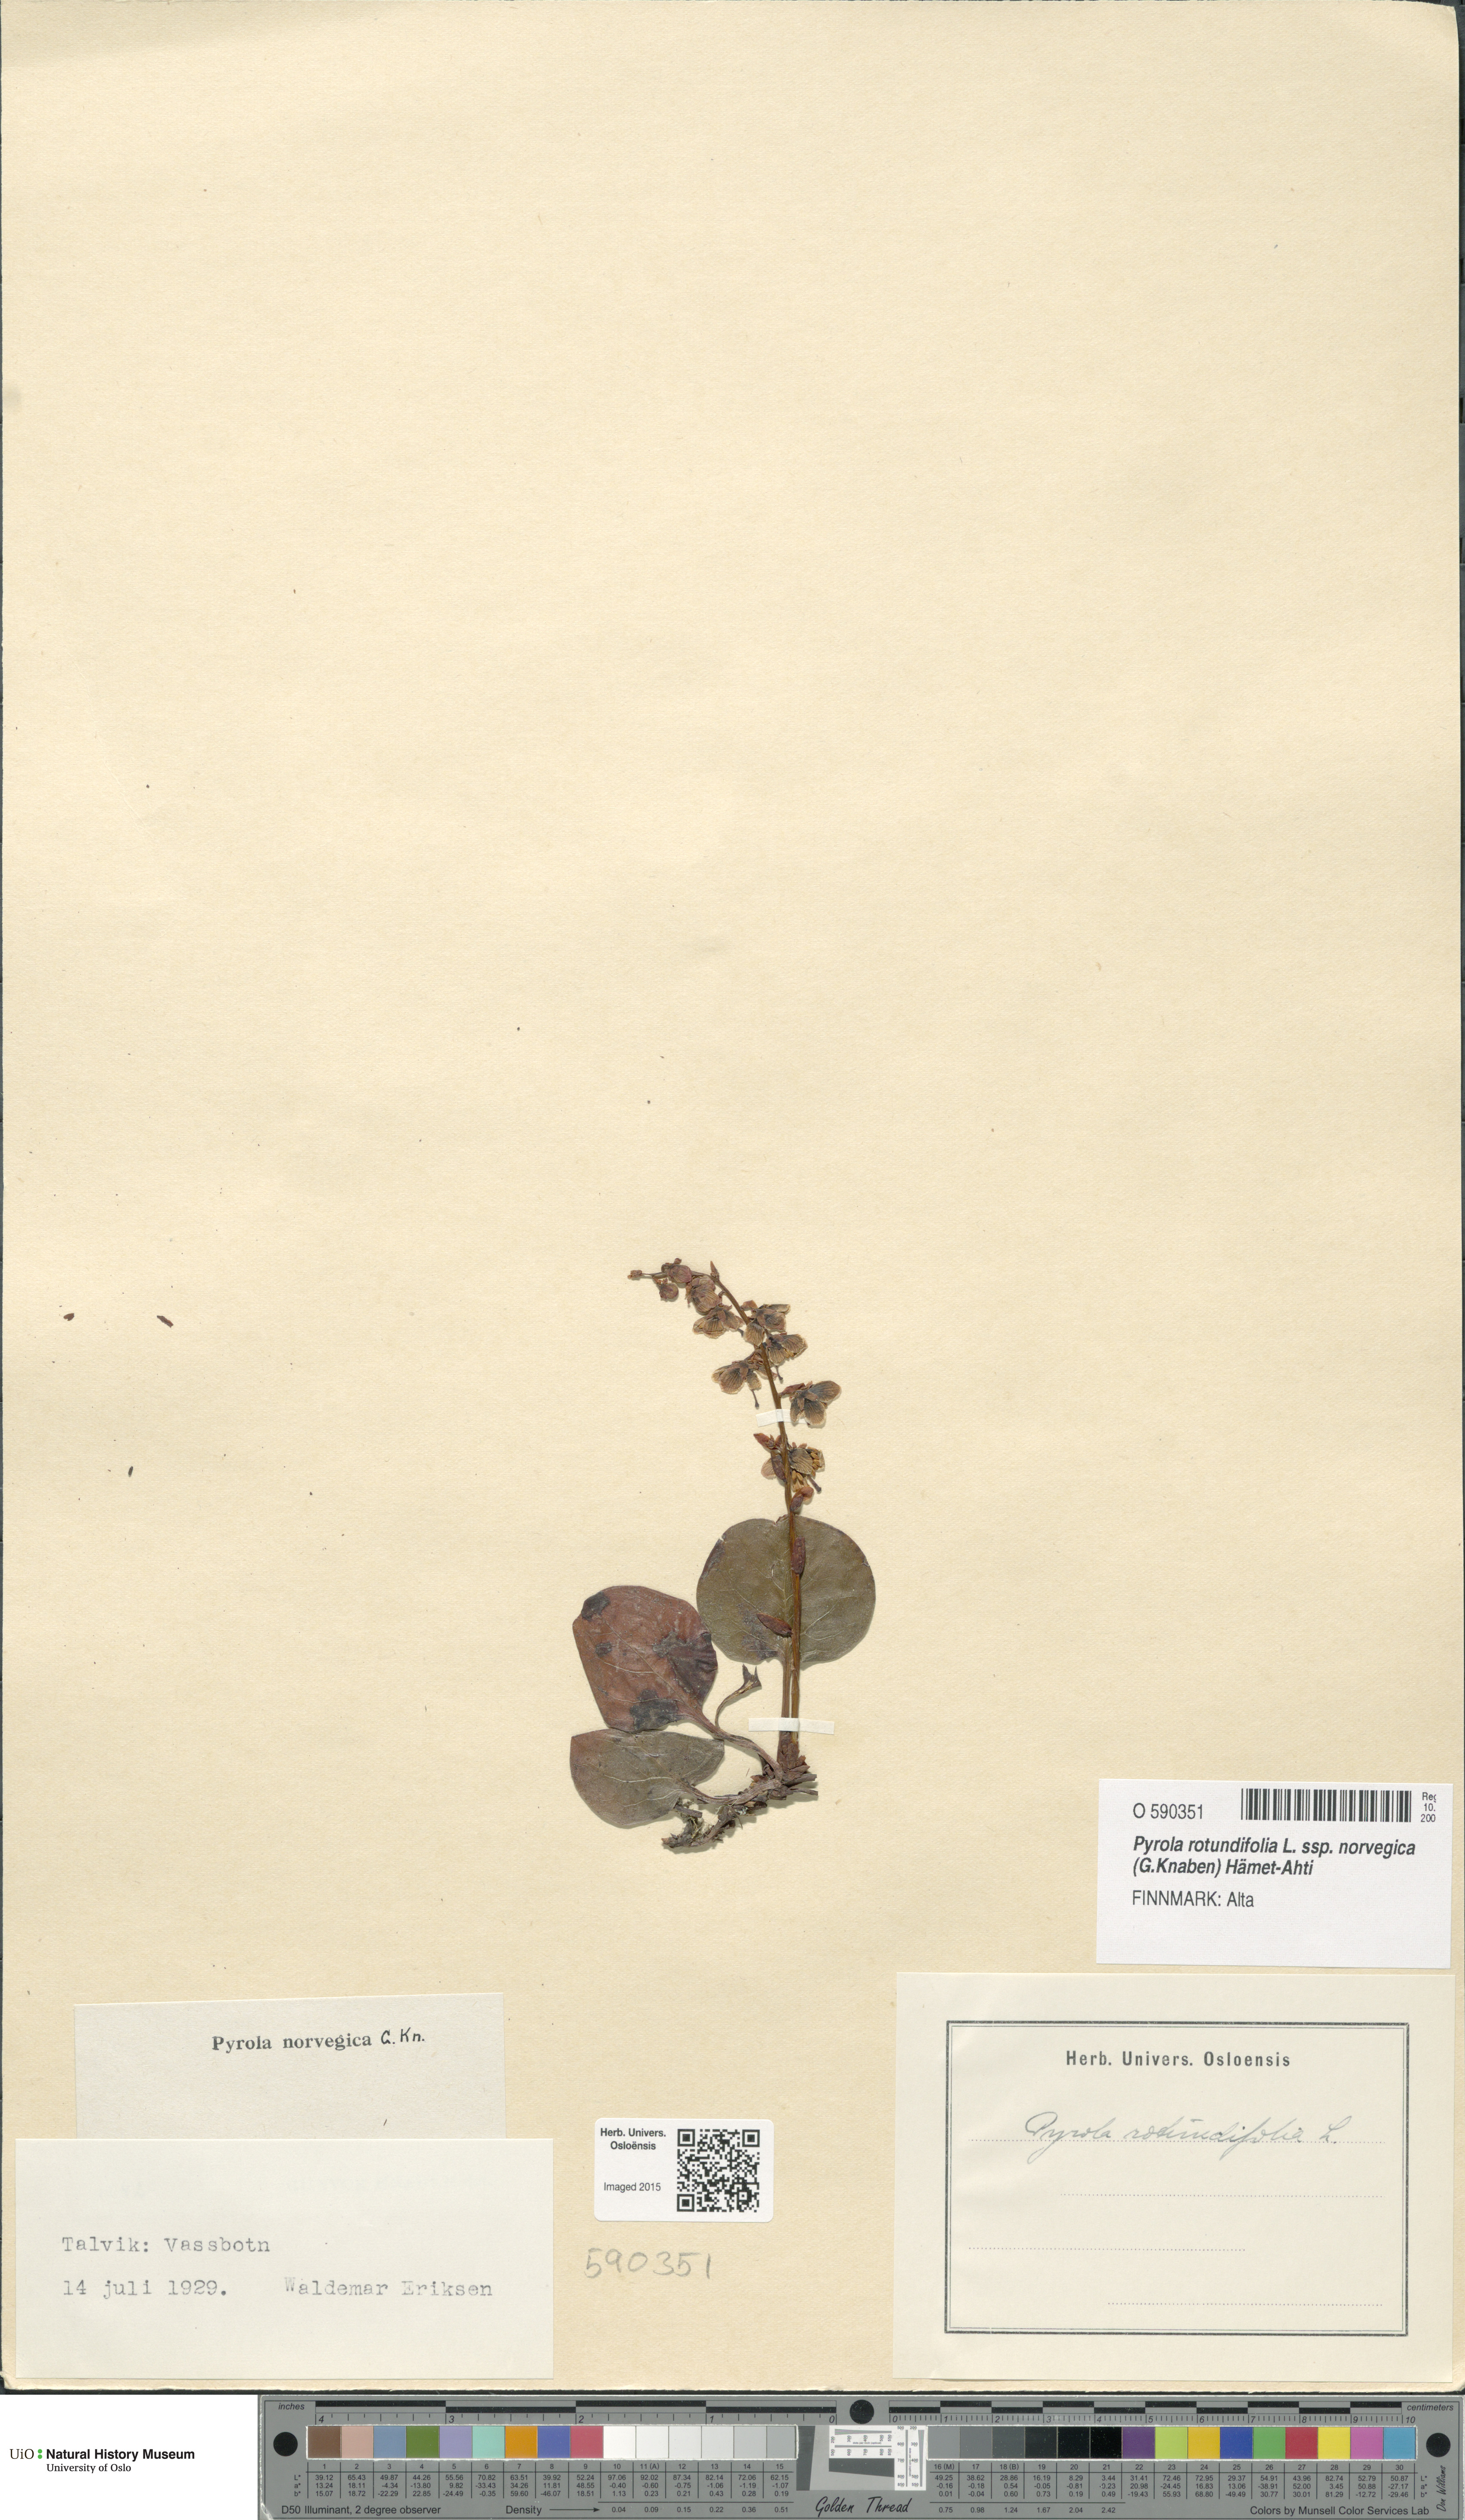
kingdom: Plantae
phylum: Tracheophyta
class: Magnoliopsida
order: Ericales
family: Ericaceae
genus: Pyrola
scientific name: Pyrola rotundifolia
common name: Round-leaved wintergreen
